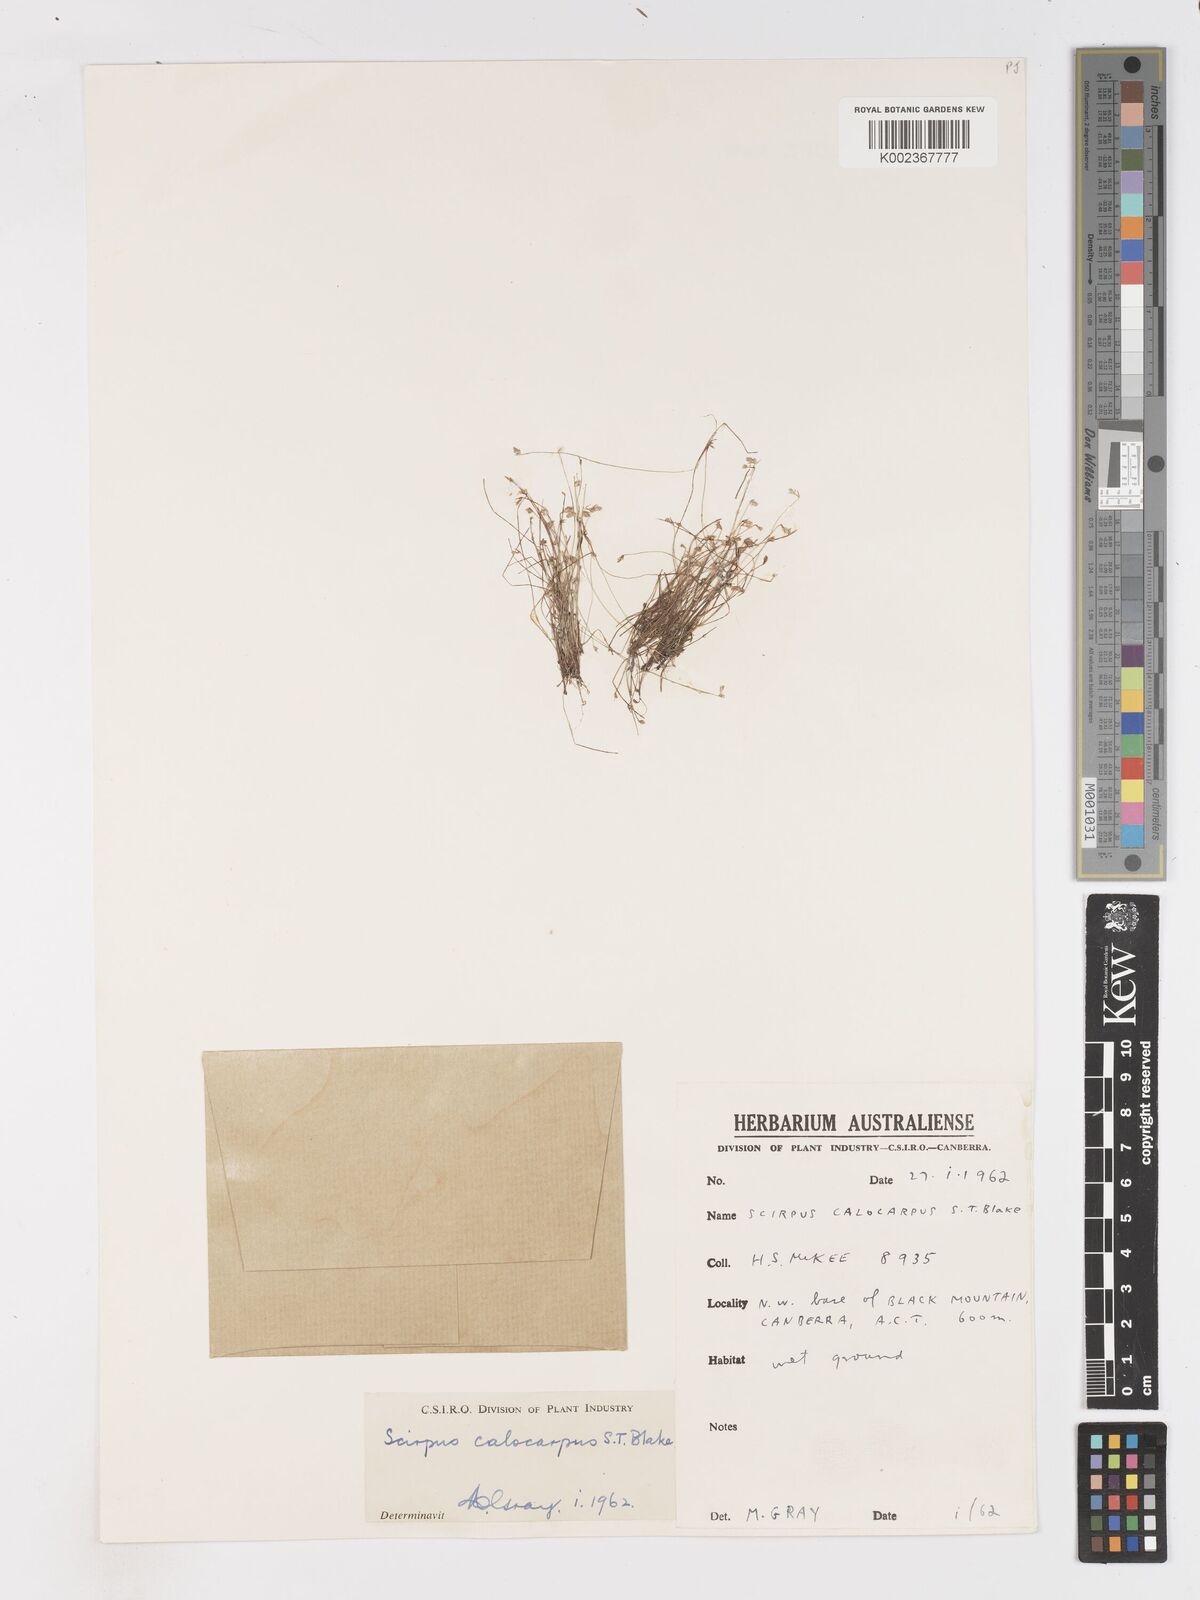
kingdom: Plantae
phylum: Tracheophyta
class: Liliopsida
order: Poales
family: Cyperaceae
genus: Isolepis
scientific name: Isolepis multicaulis
